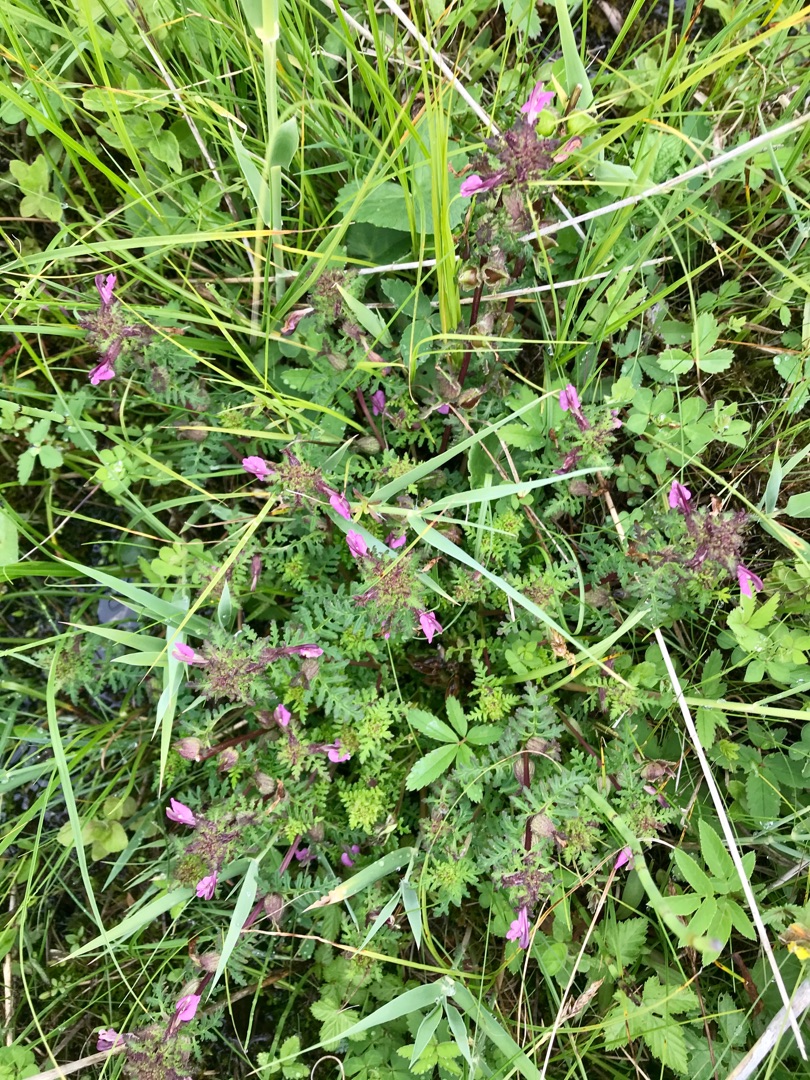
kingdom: Plantae
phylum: Tracheophyta
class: Magnoliopsida
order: Lamiales
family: Orobanchaceae
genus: Pedicularis
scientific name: Pedicularis palustris
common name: Eng-troldurt
